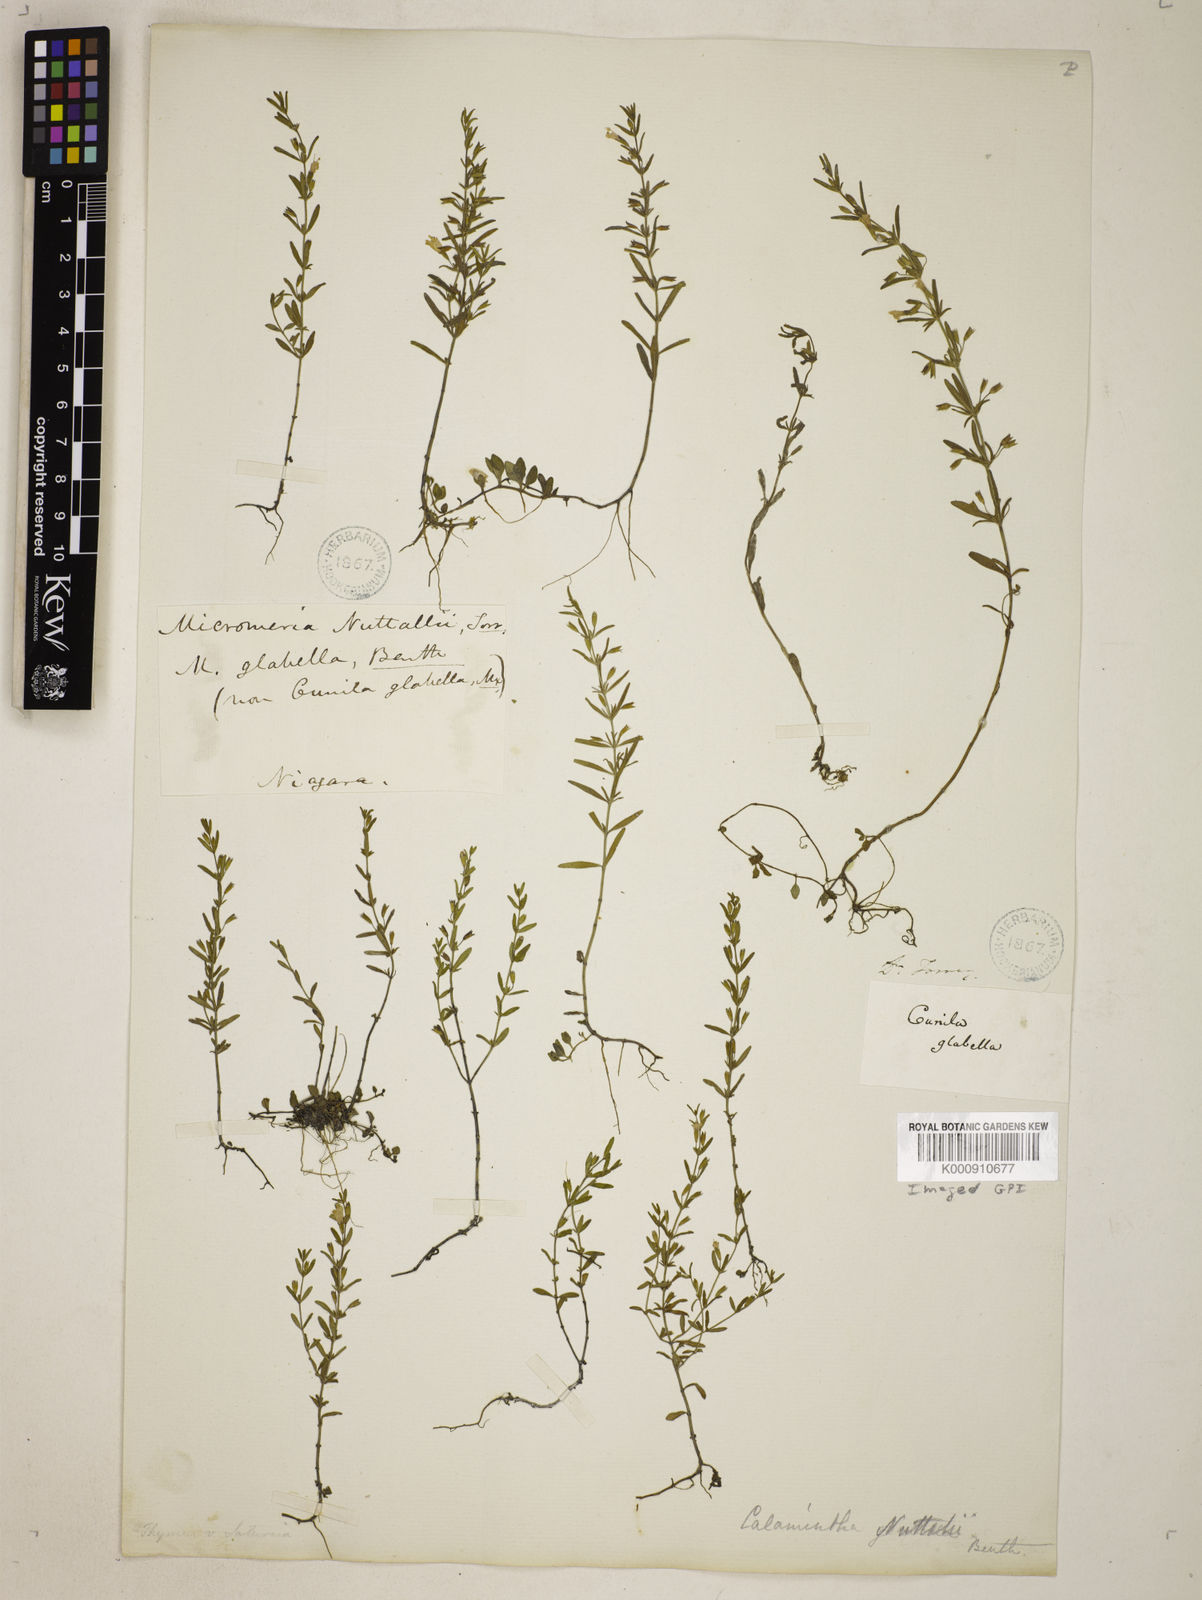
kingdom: Plantae
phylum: Tracheophyta
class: Magnoliopsida
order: Lamiales
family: Lamiaceae
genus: Clinopodium
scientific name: Clinopodium glabellum
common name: Ozark calamint
